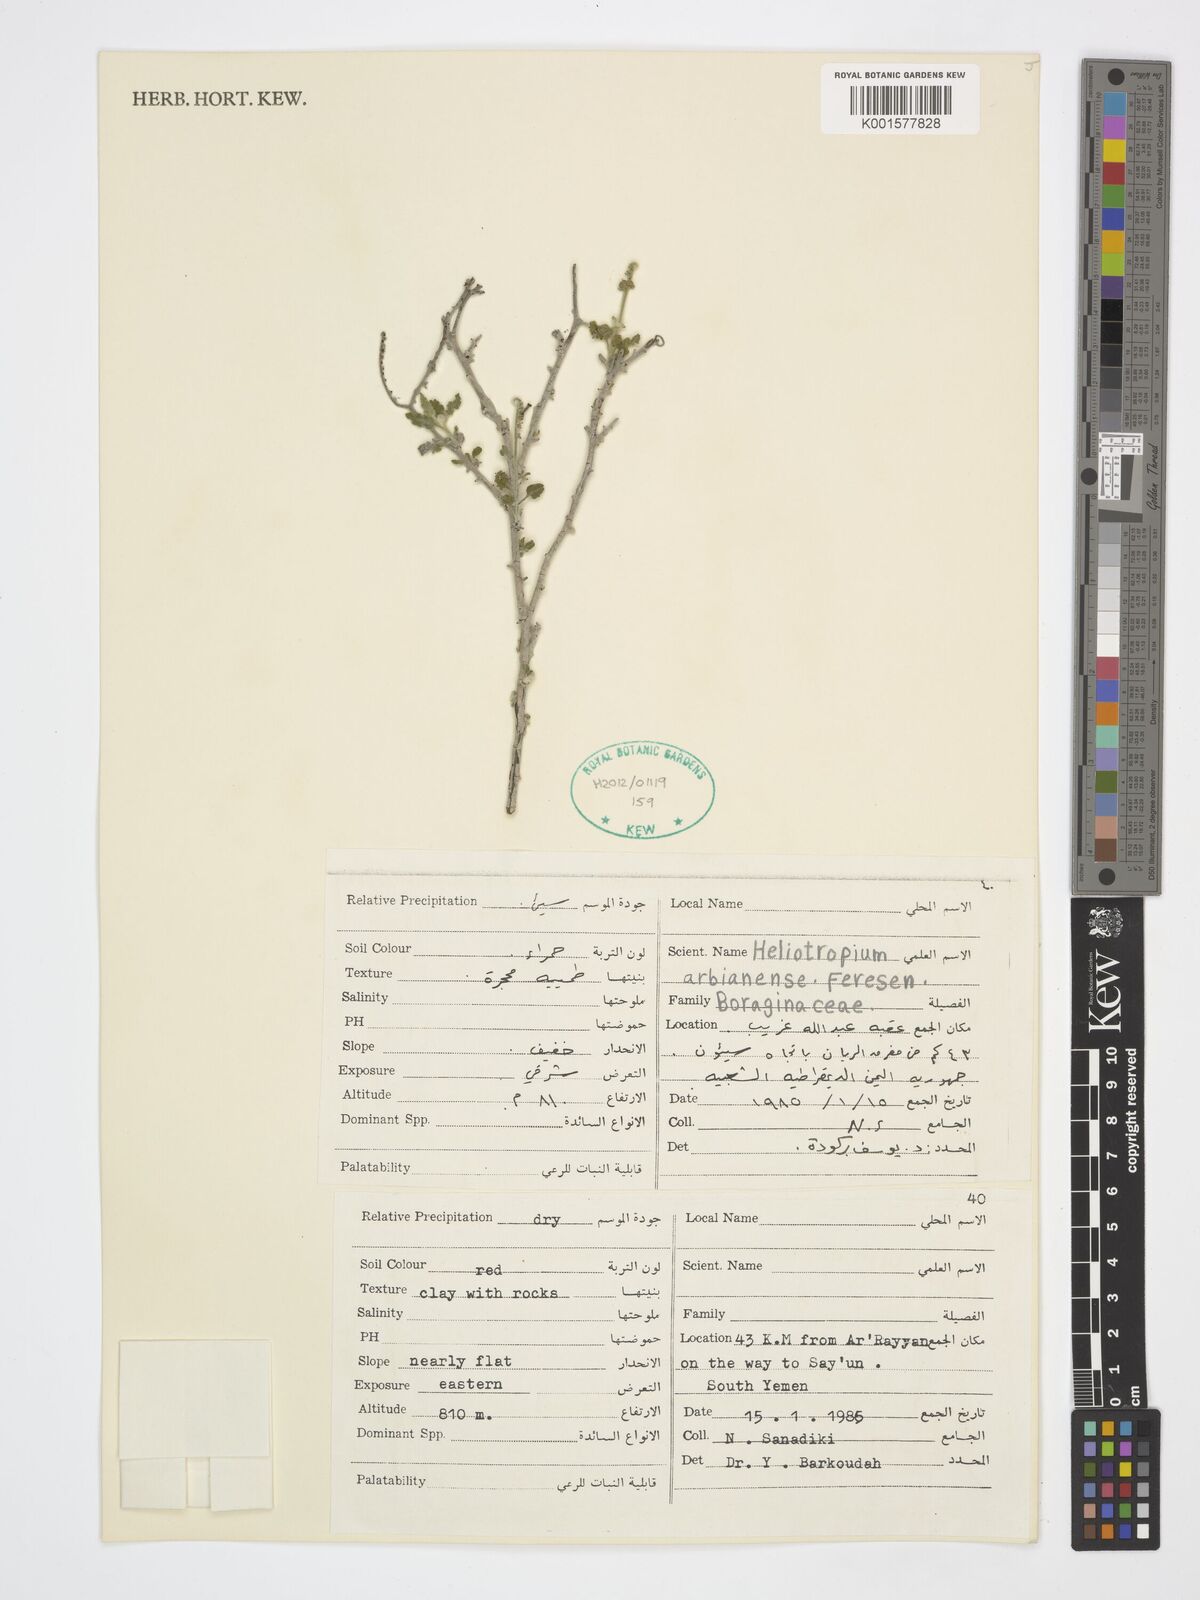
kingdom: Plantae
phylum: Tracheophyta
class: Magnoliopsida
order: Boraginales
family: Heliotropiaceae
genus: Heliotropium
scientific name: Heliotropium arbainense
